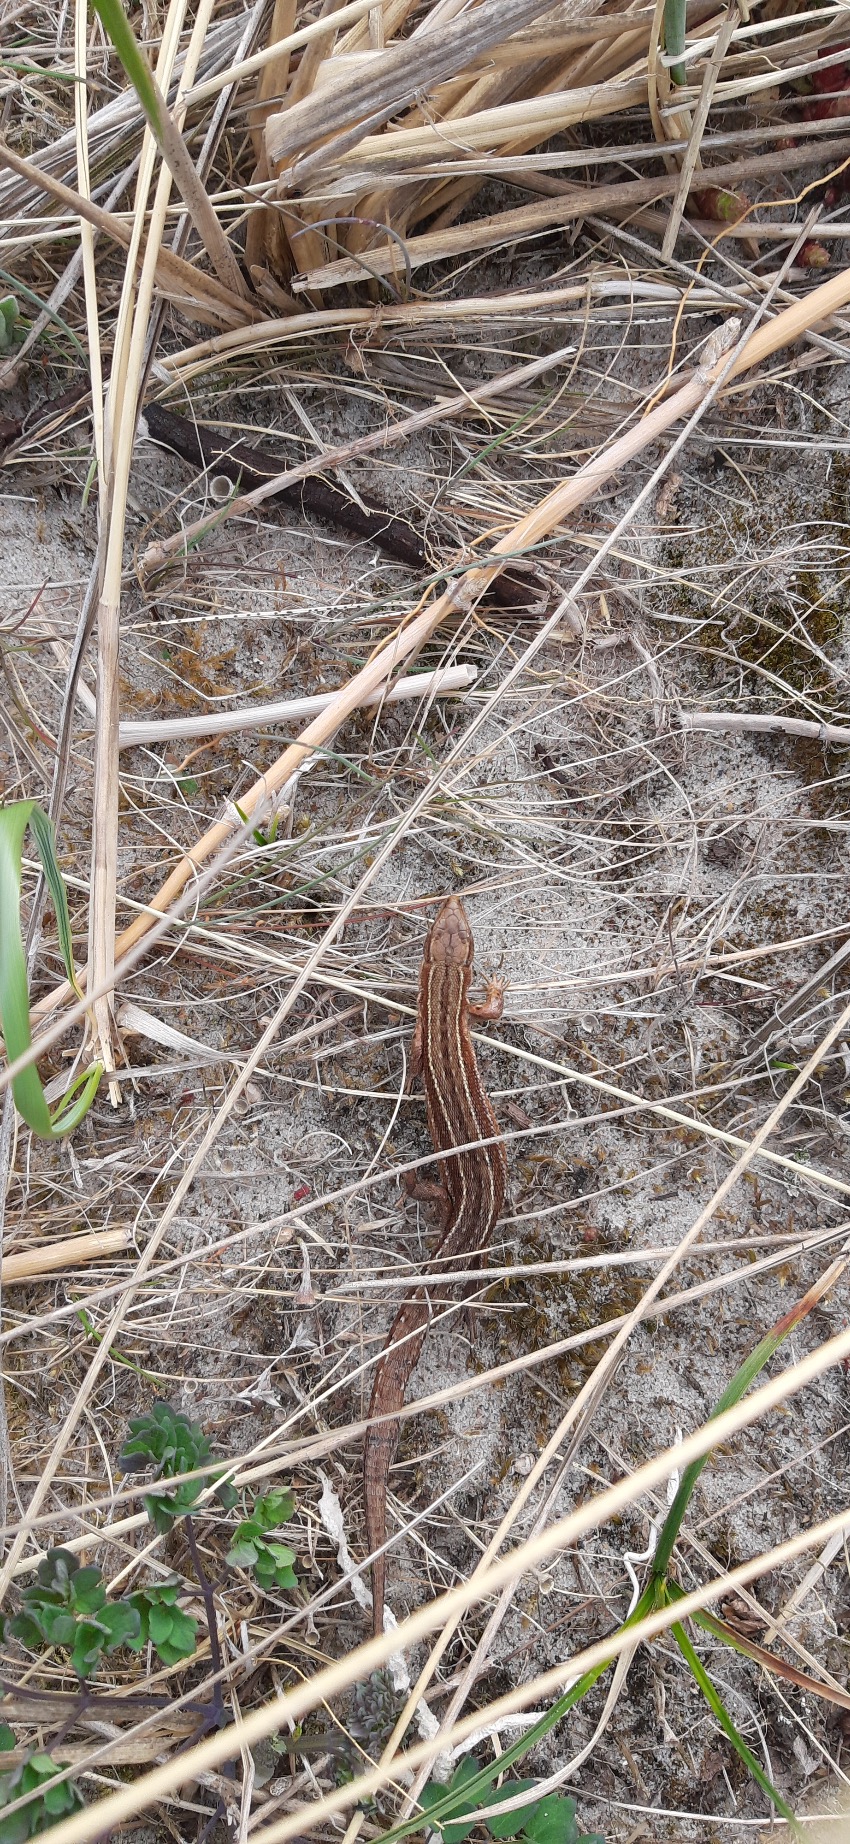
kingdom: Animalia
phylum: Chordata
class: Squamata
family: Lacertidae
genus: Zootoca
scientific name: Zootoca vivipara
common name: Skovfirben
